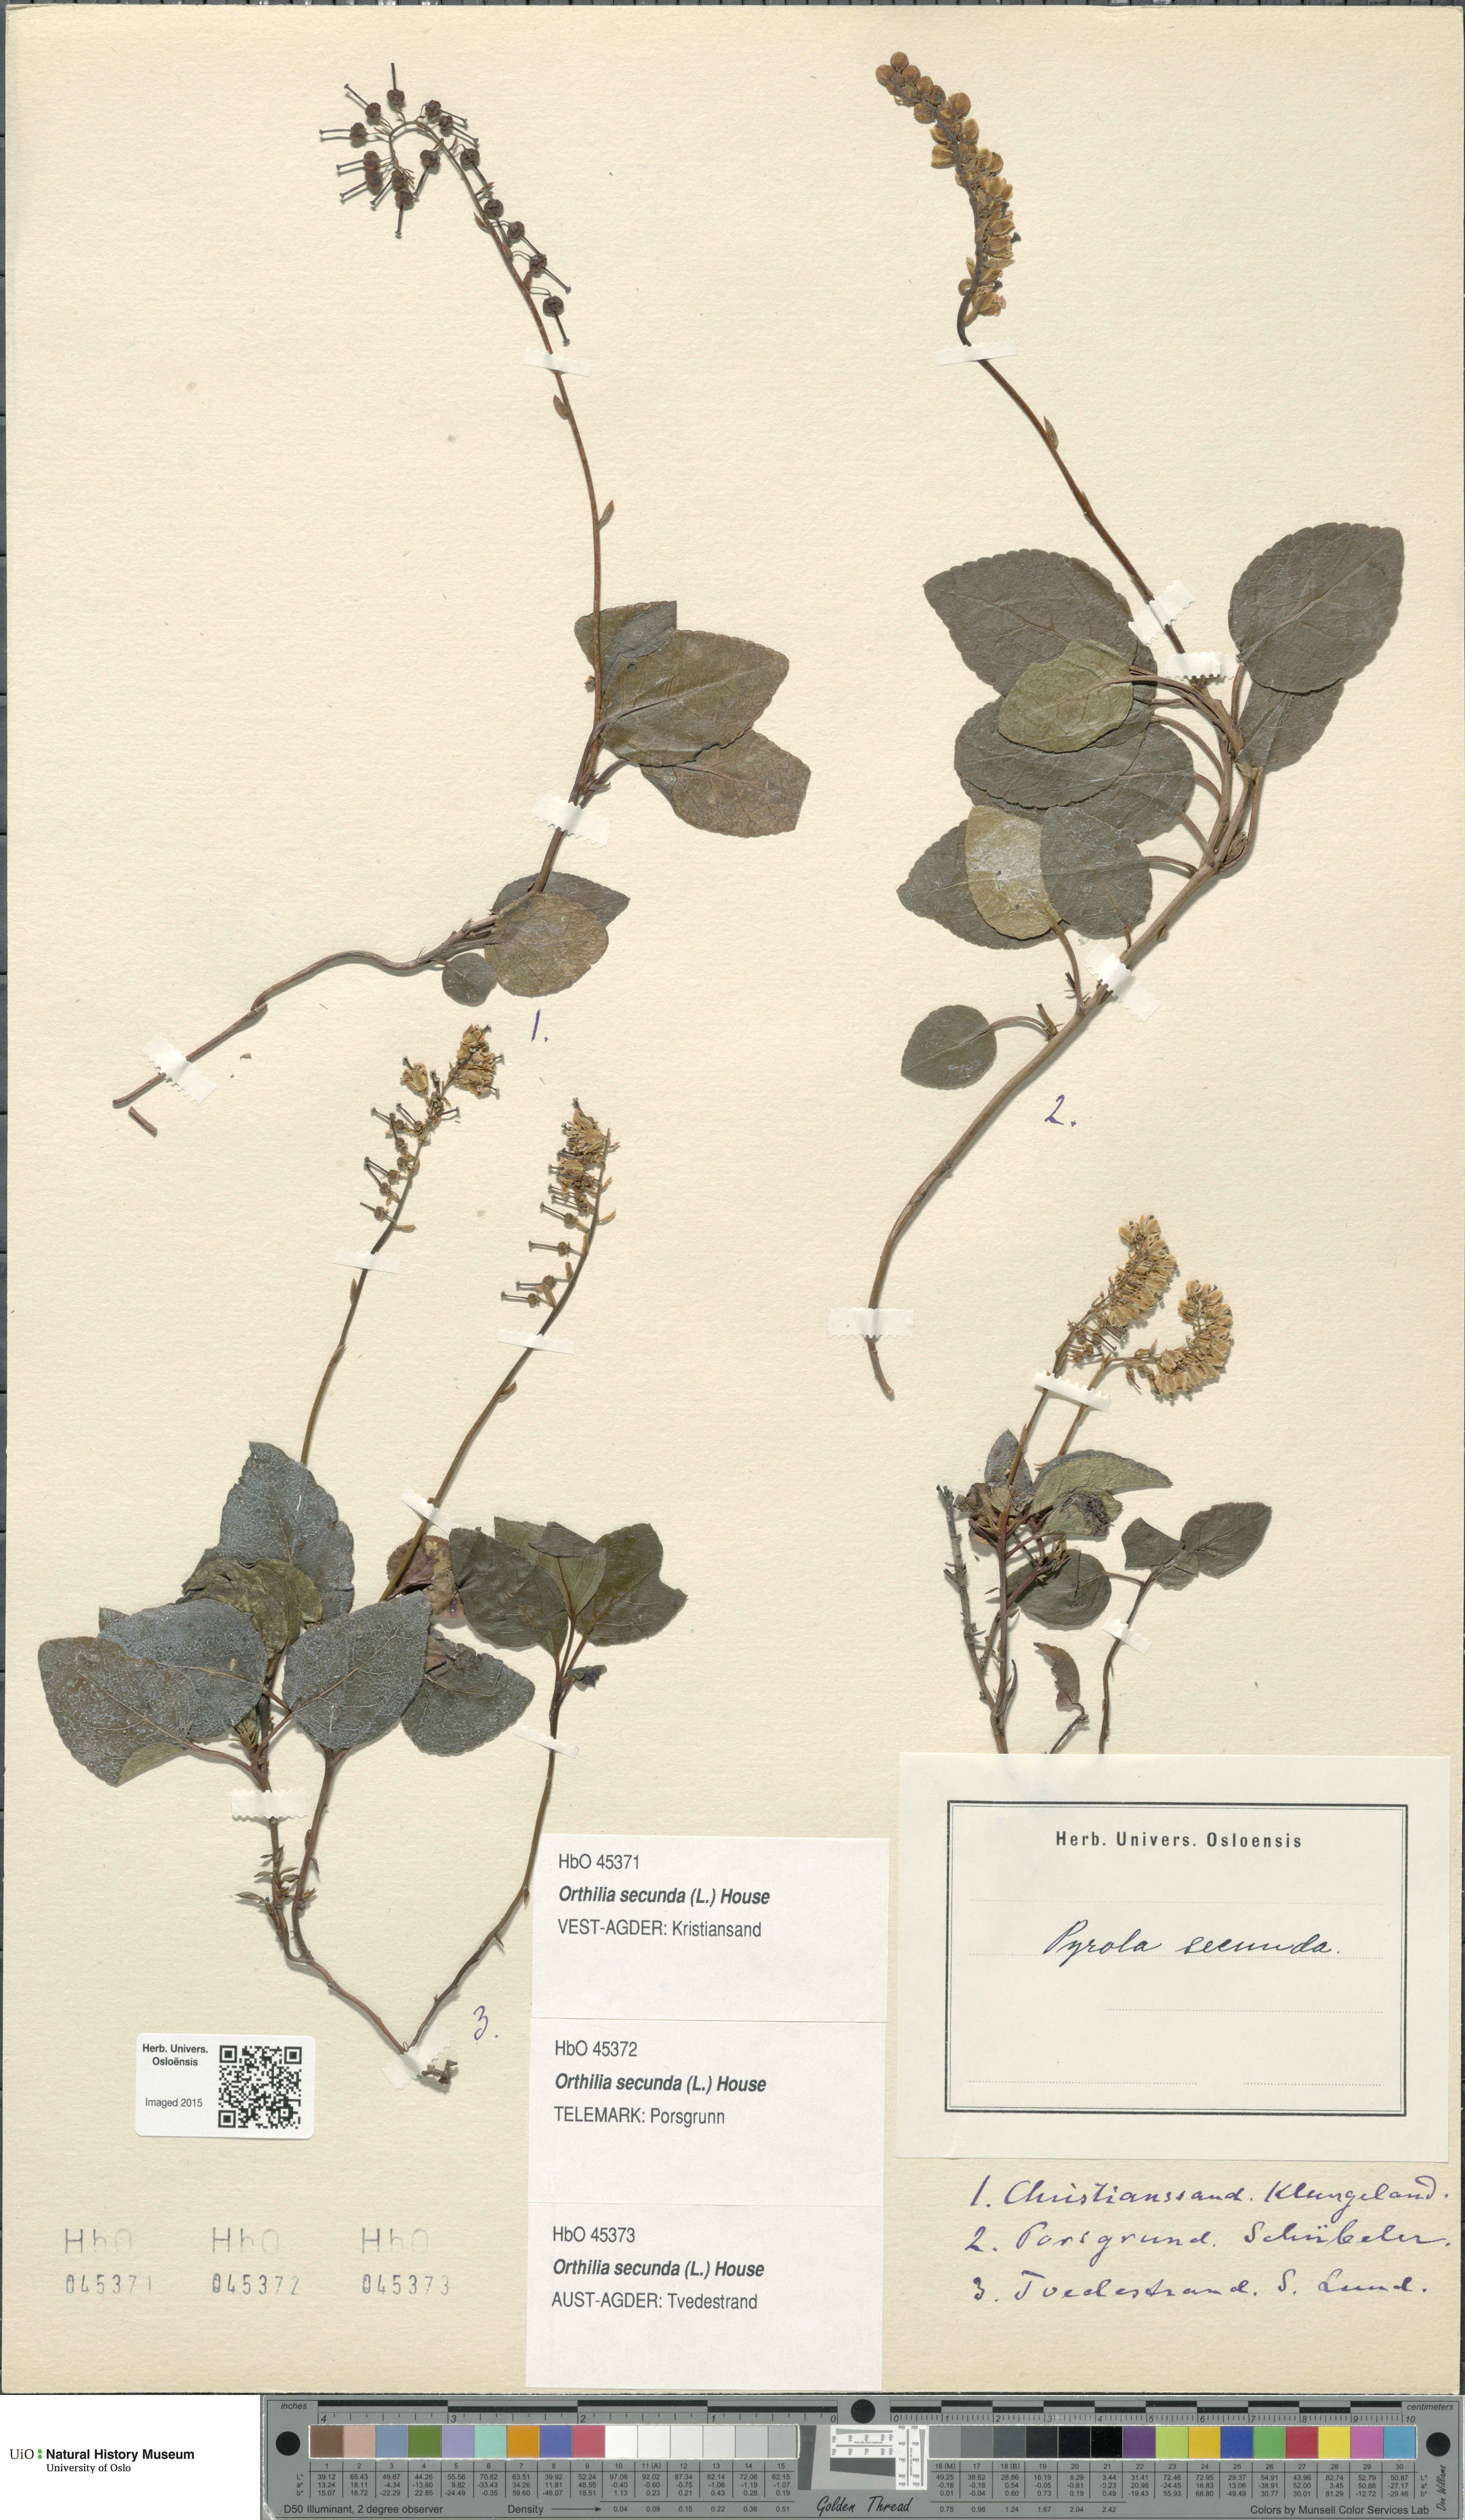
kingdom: Plantae
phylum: Tracheophyta
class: Magnoliopsida
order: Ericales
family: Ericaceae
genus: Orthilia
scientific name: Orthilia secunda
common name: One-sided orthilia
